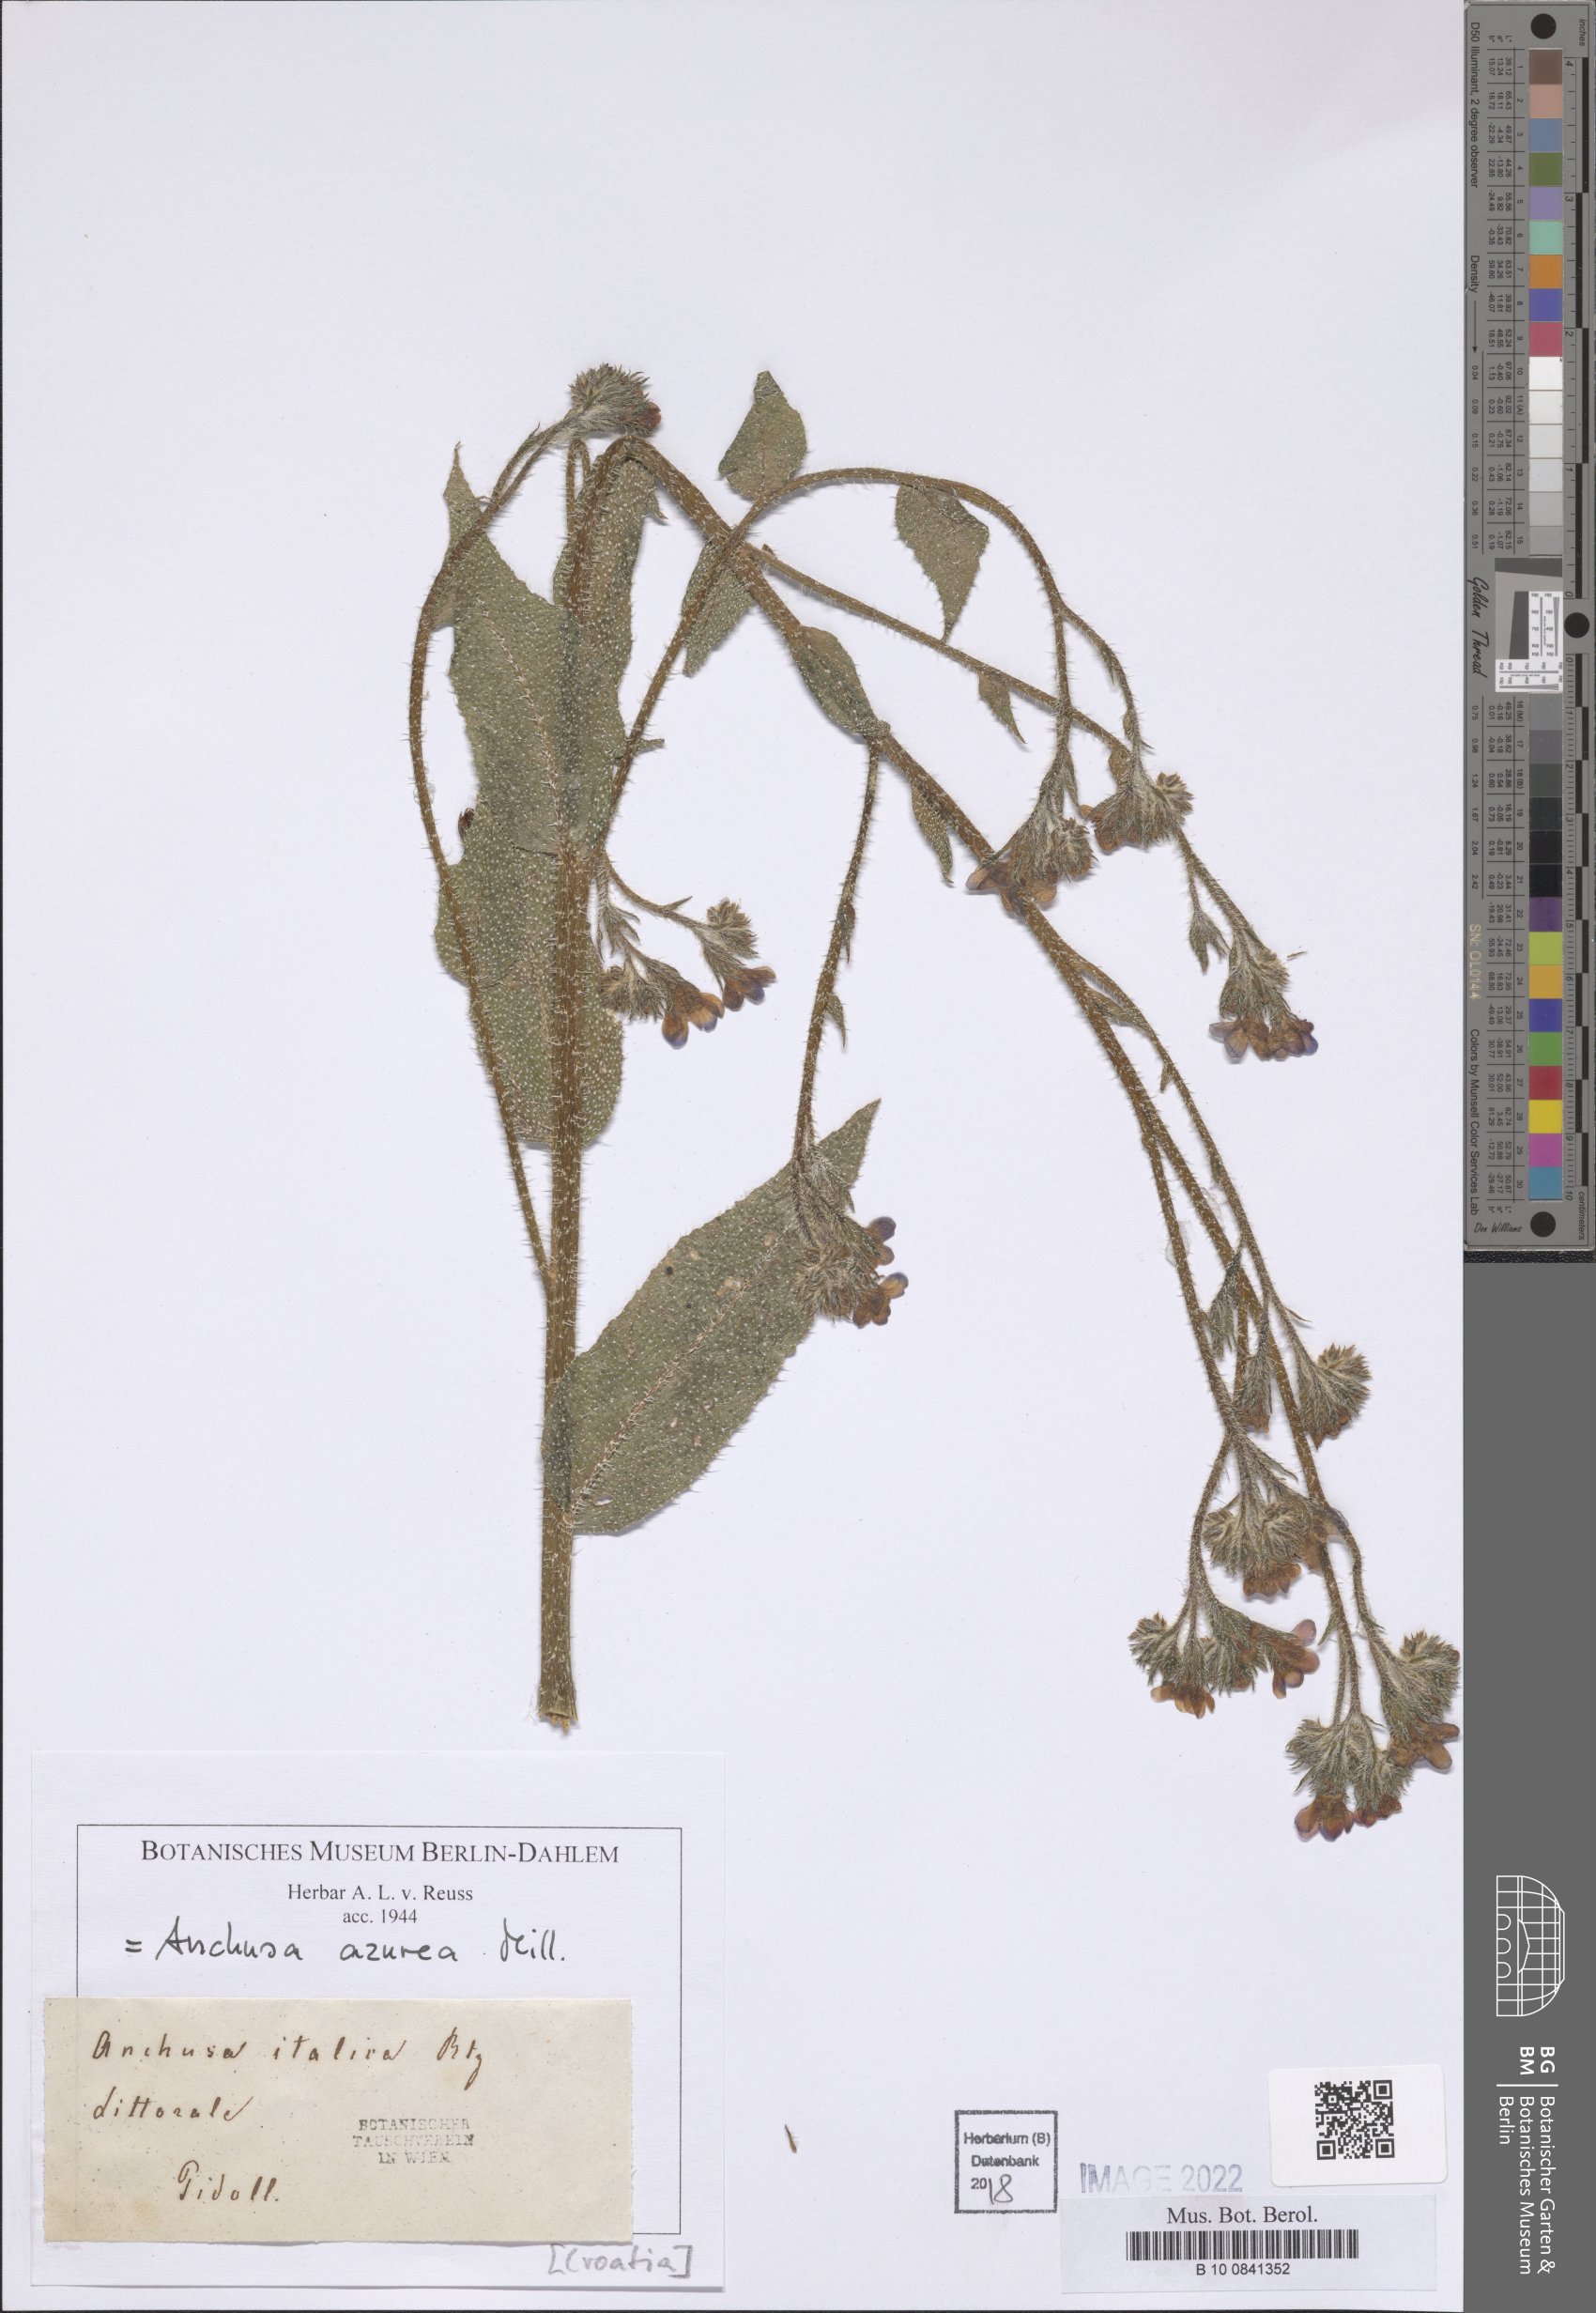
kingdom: Plantae
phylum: Tracheophyta
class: Magnoliopsida
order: Boraginales
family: Boraginaceae
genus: Anchusa
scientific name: Anchusa azurea
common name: Garden anchusa
